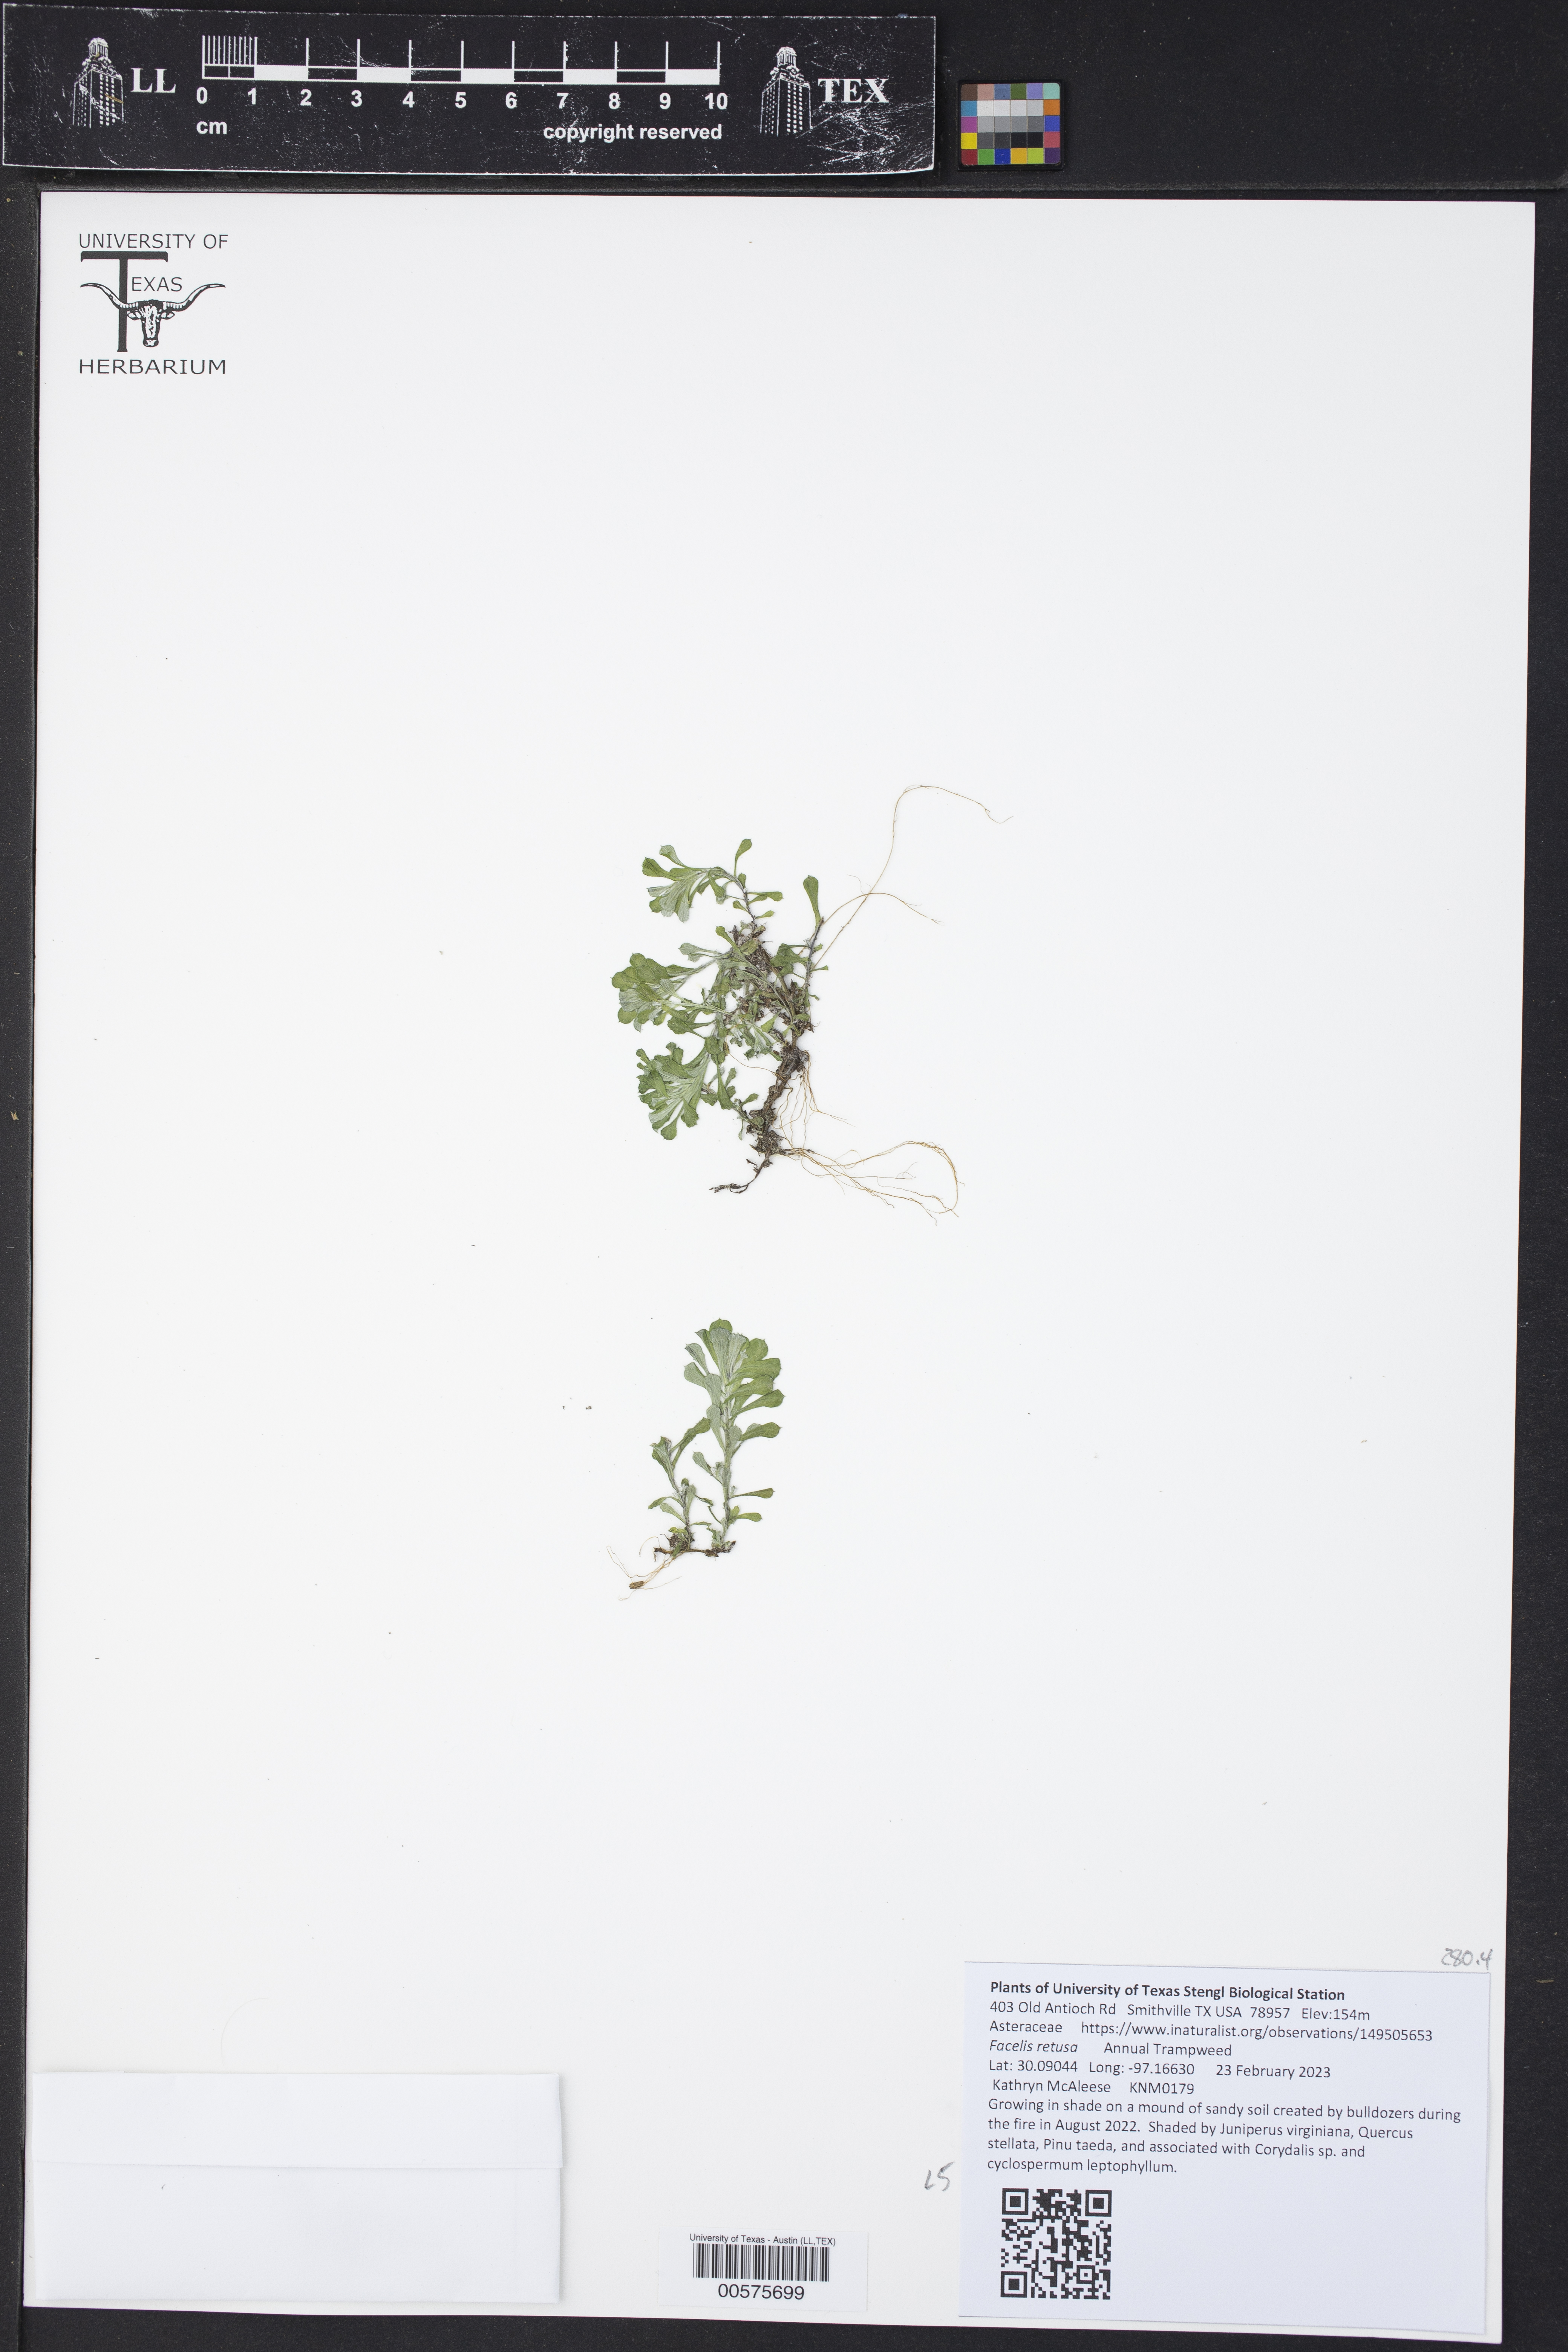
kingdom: Plantae
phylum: Tracheophyta
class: Magnoliopsida
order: Asterales
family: Asteraceae
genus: Facelis
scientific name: Facelis retusa
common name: Annual trampweed
